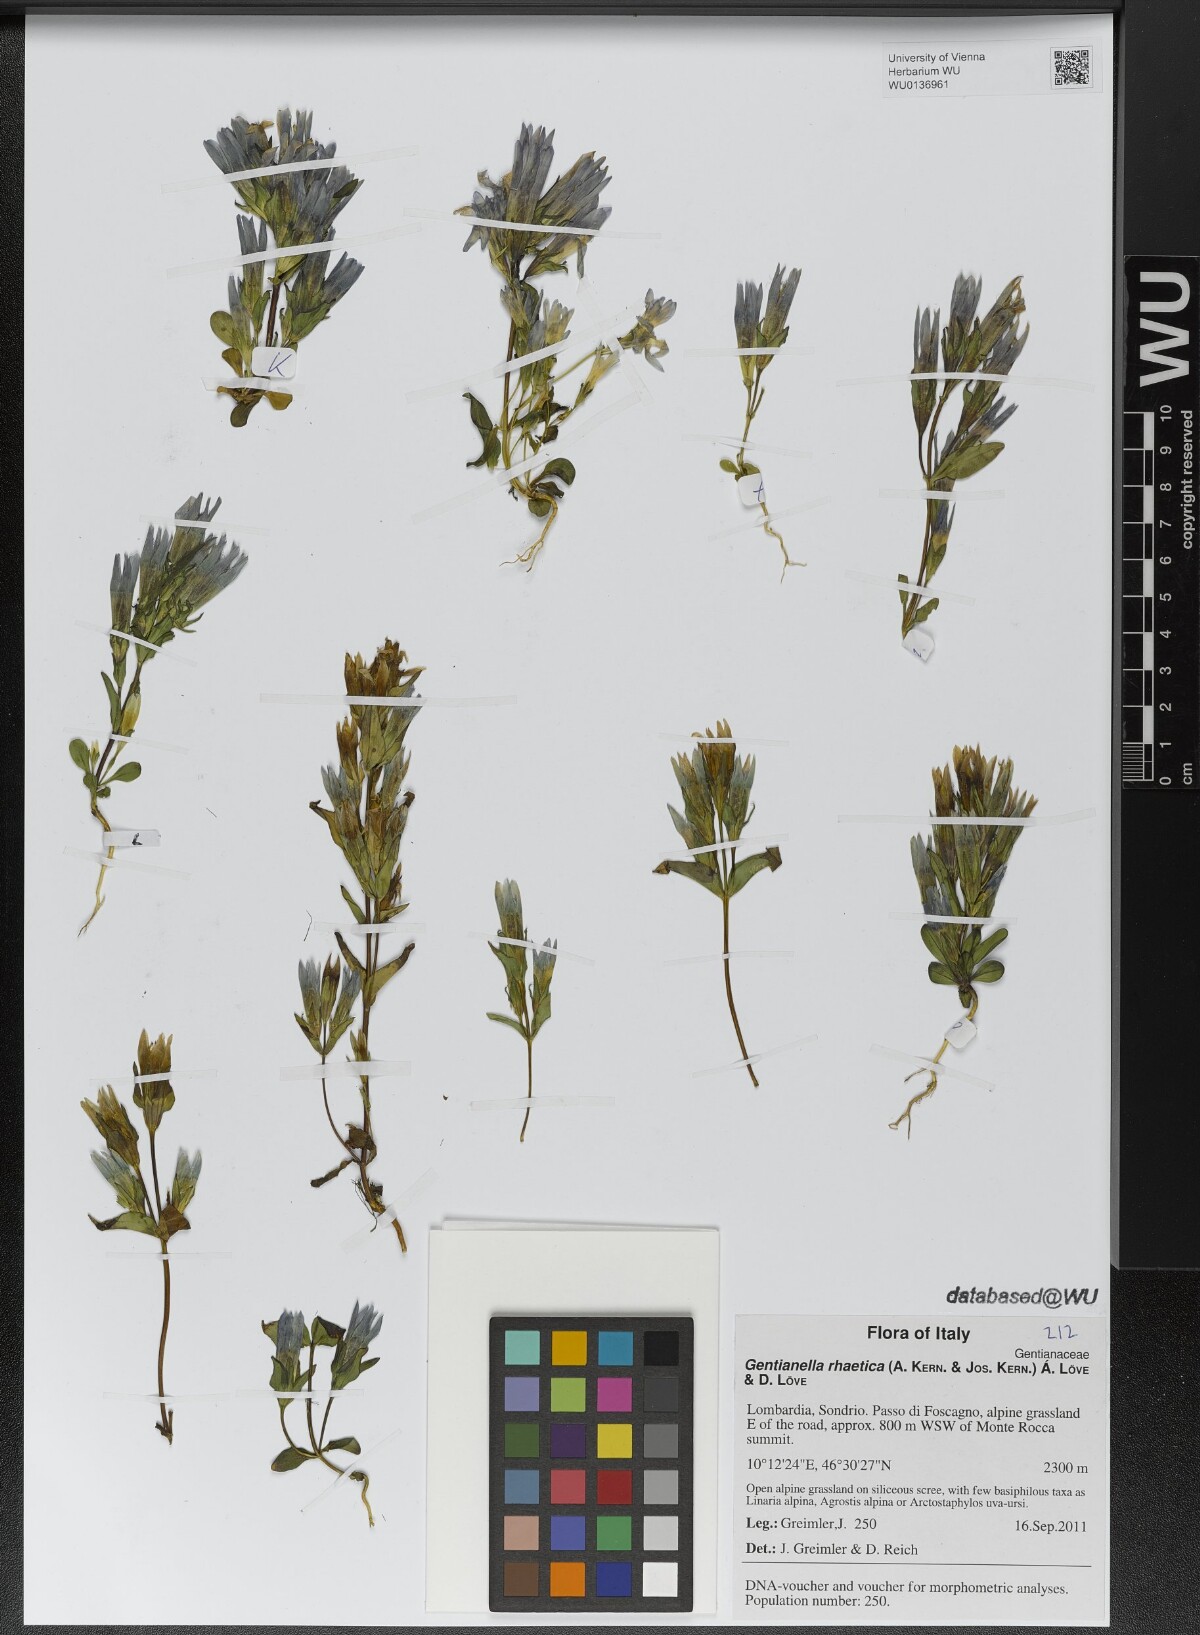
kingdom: Plantae
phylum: Tracheophyta
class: Magnoliopsida
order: Gentianales
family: Gentianaceae
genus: Gentianella
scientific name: Gentianella rhaetica
